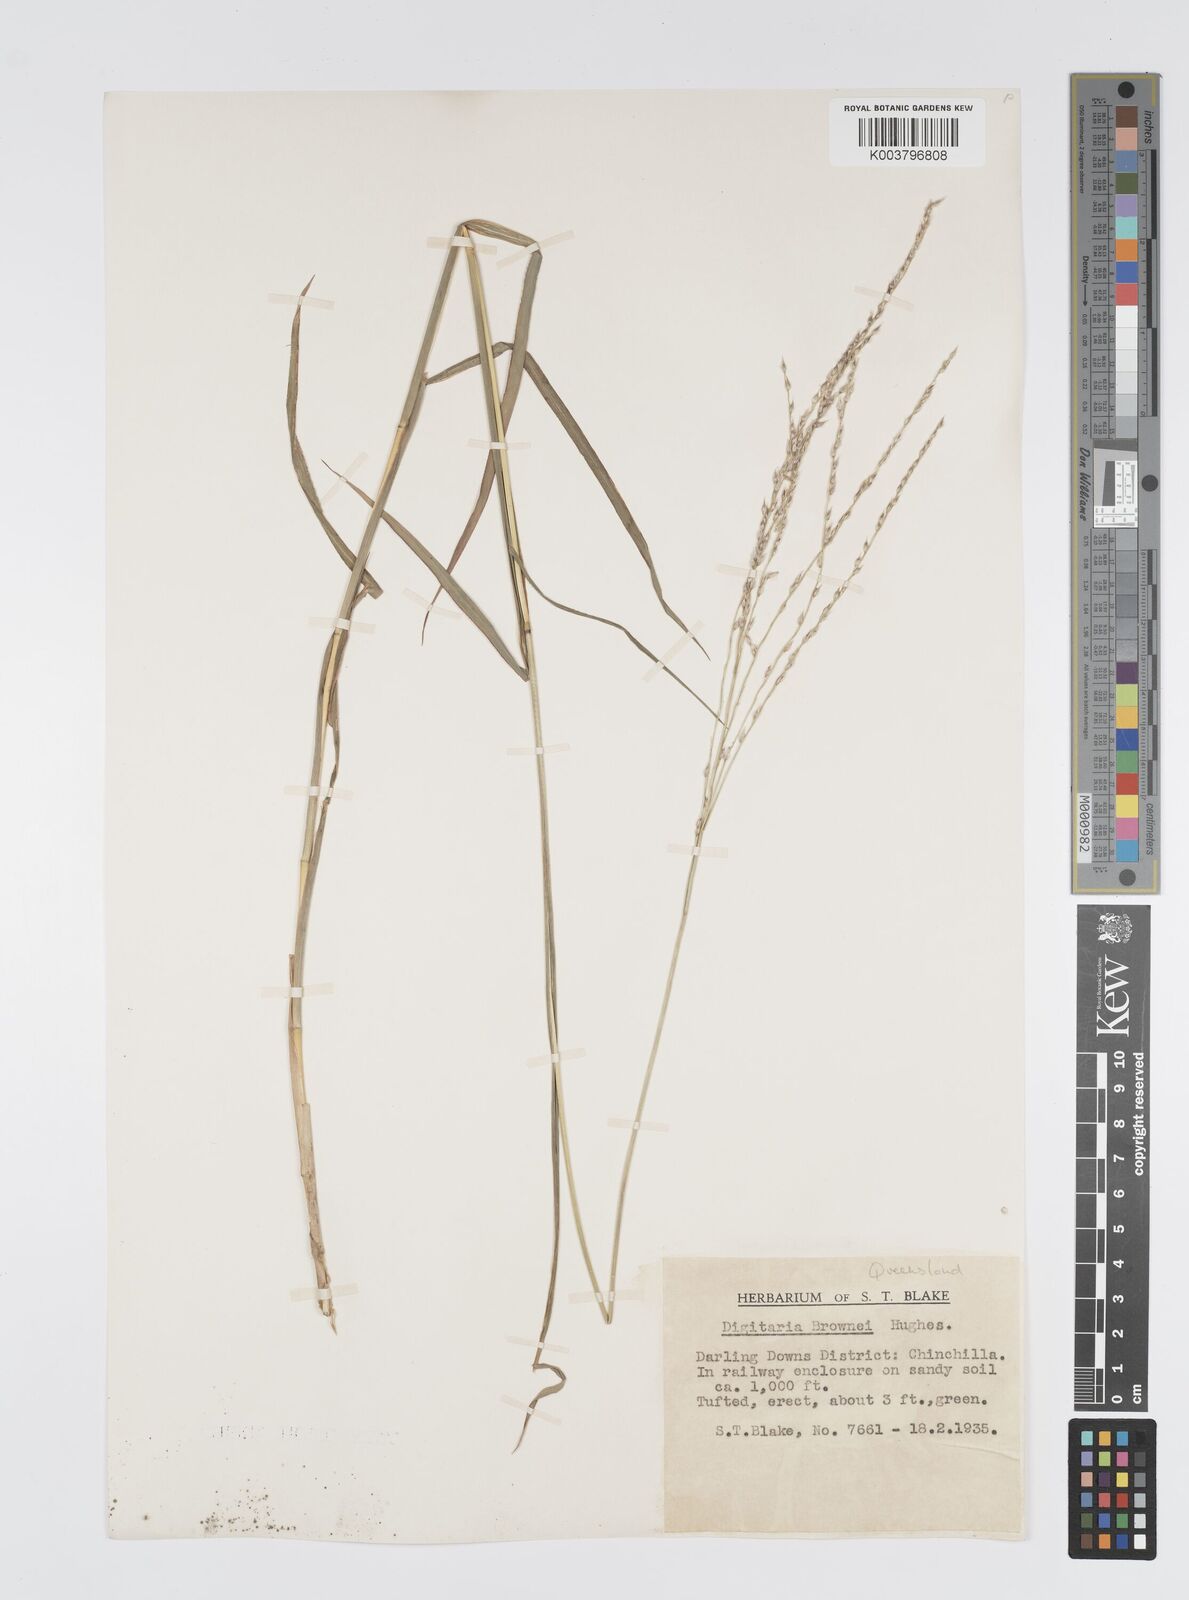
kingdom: Plantae
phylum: Tracheophyta
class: Liliopsida
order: Poales
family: Poaceae
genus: Digitaria
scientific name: Digitaria brownii
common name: Cotton grass
